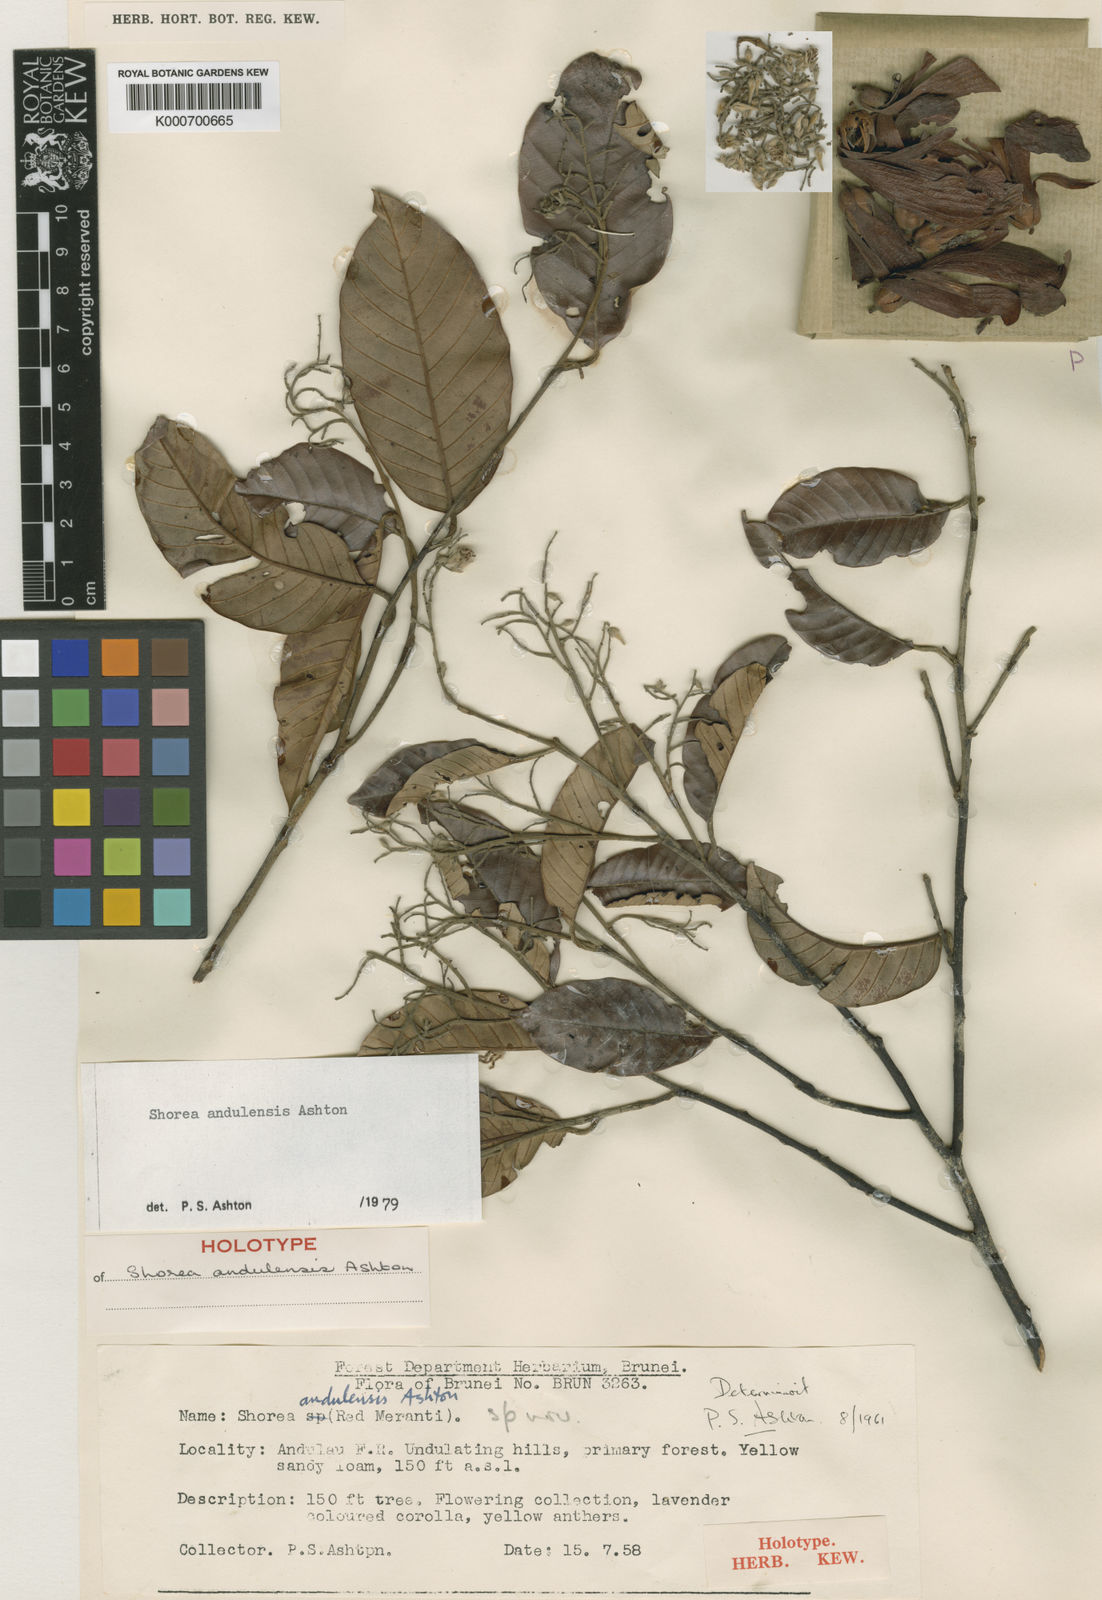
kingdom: Plantae
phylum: Tracheophyta
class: Magnoliopsida
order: Malvales
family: Dipterocarpaceae
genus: Shorea
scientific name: Shorea andulensis
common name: Light red meranti
